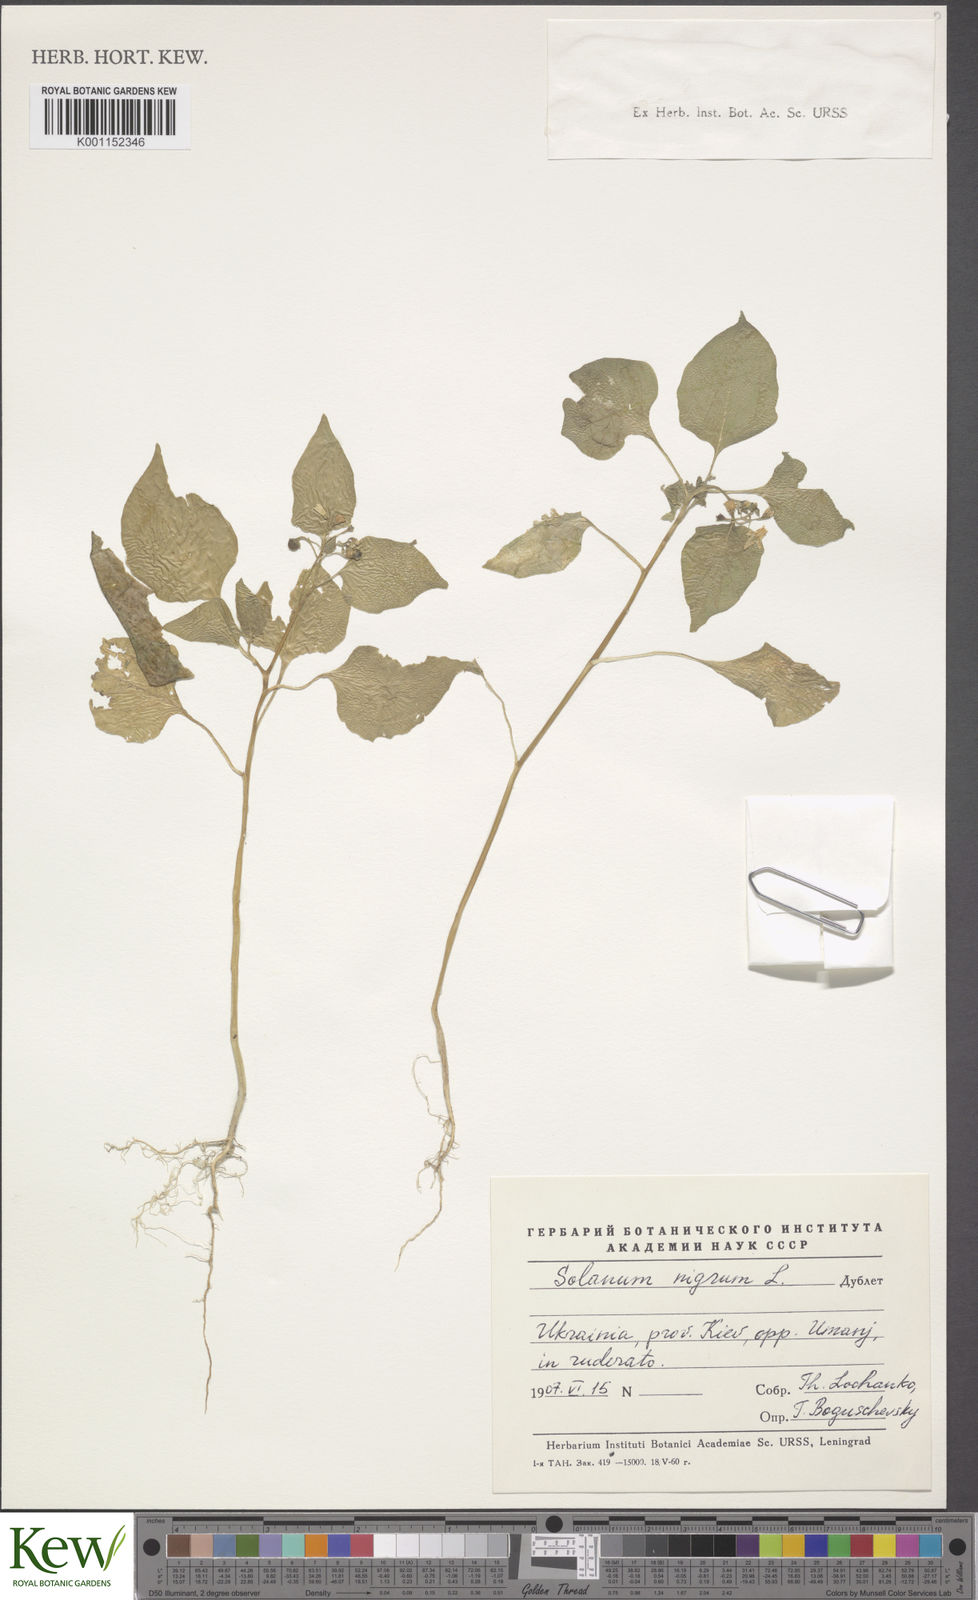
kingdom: Plantae
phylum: Tracheophyta
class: Magnoliopsida
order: Solanales
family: Solanaceae
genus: Solanum
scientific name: Solanum nigrum
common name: Black nightshade
